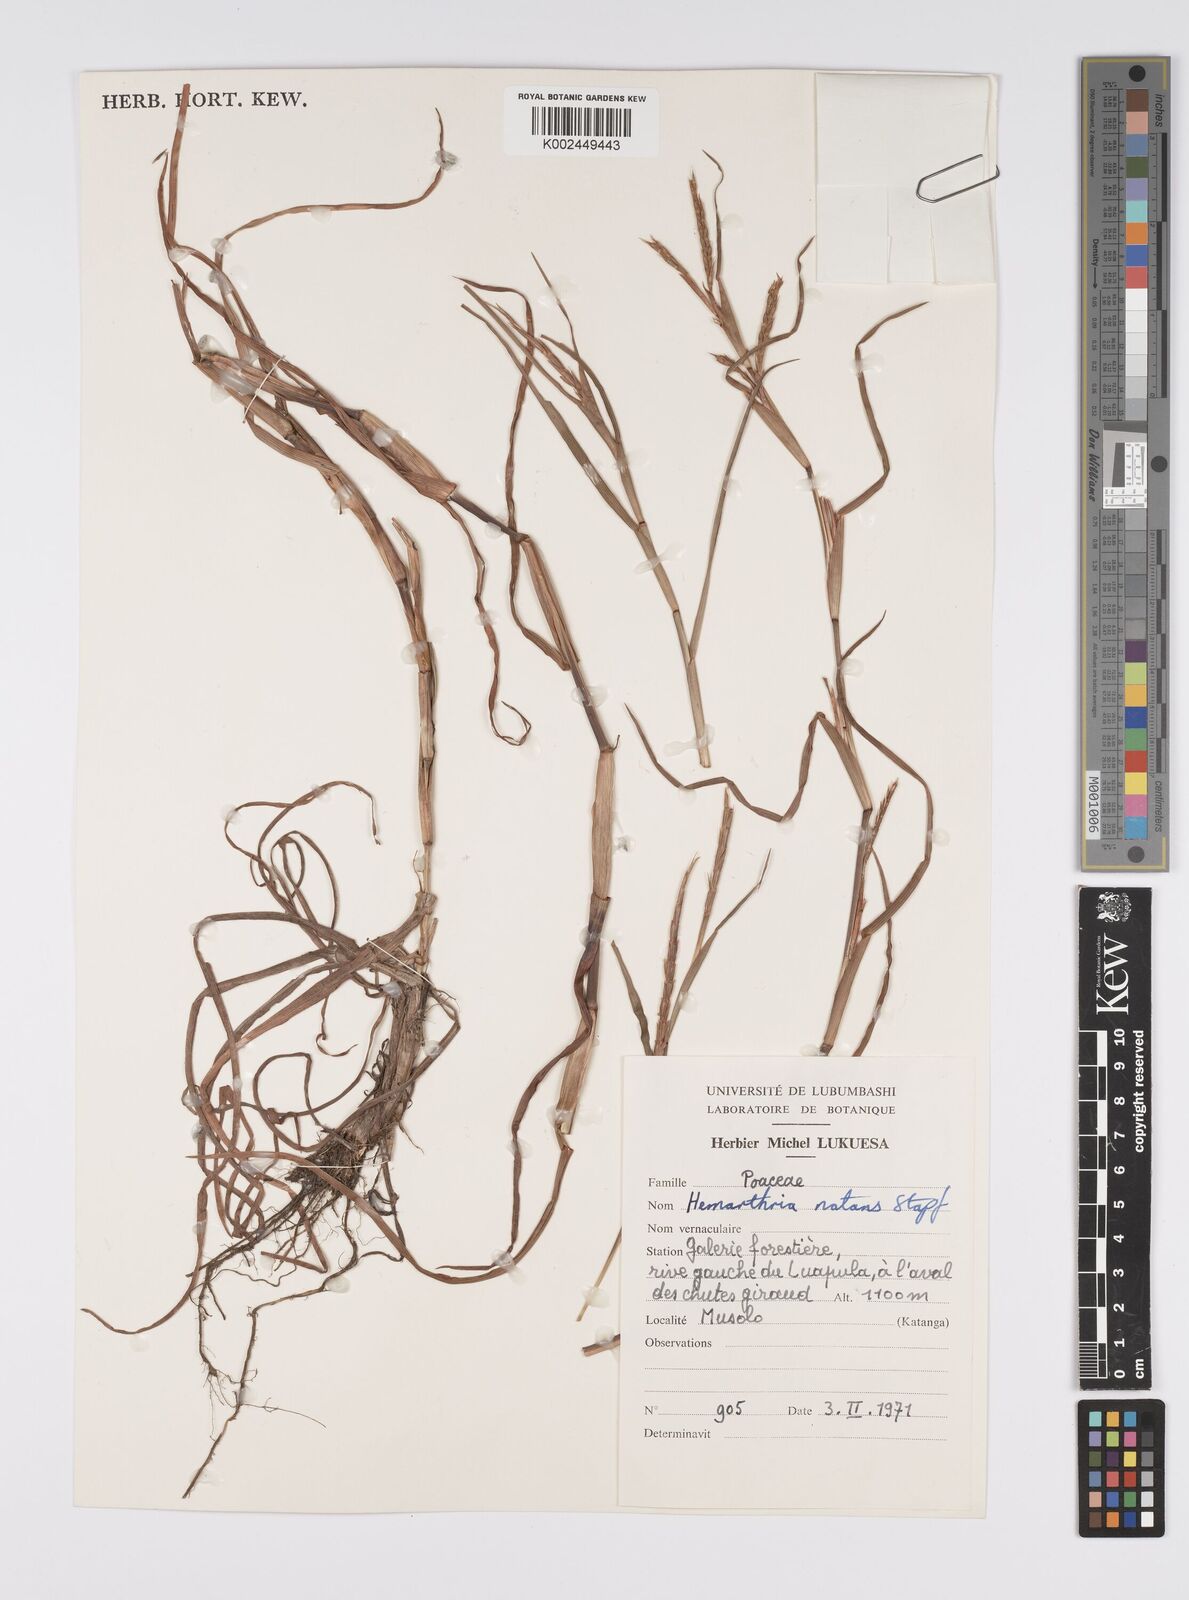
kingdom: Plantae
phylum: Tracheophyta
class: Liliopsida
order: Poales
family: Poaceae
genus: Hemarthria
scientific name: Hemarthria natans
